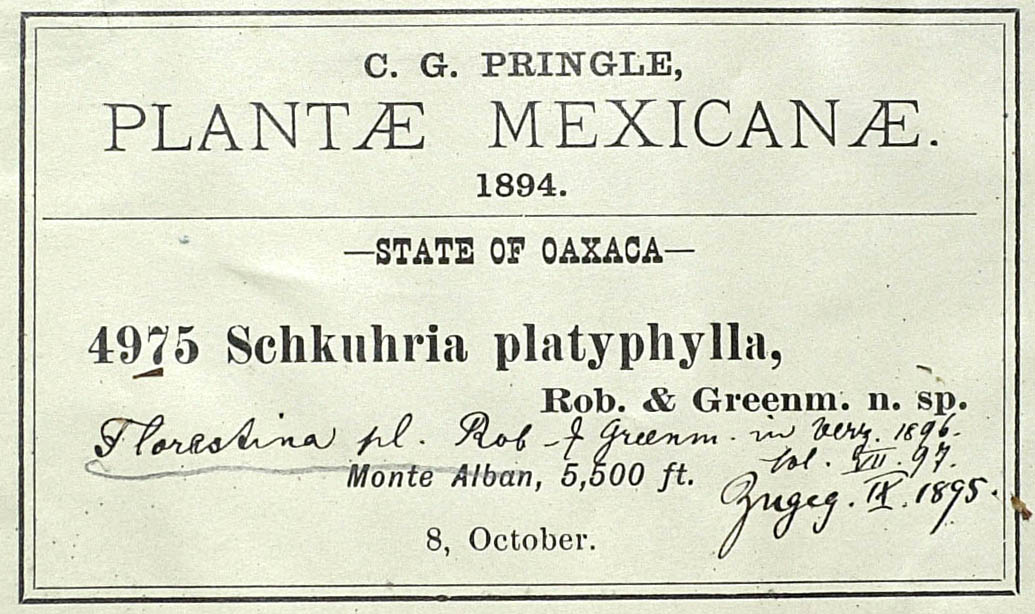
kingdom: Plantae
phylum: Tracheophyta
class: Magnoliopsida
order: Asterales
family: Asteraceae
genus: Florestina
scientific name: Florestina platyphylla
